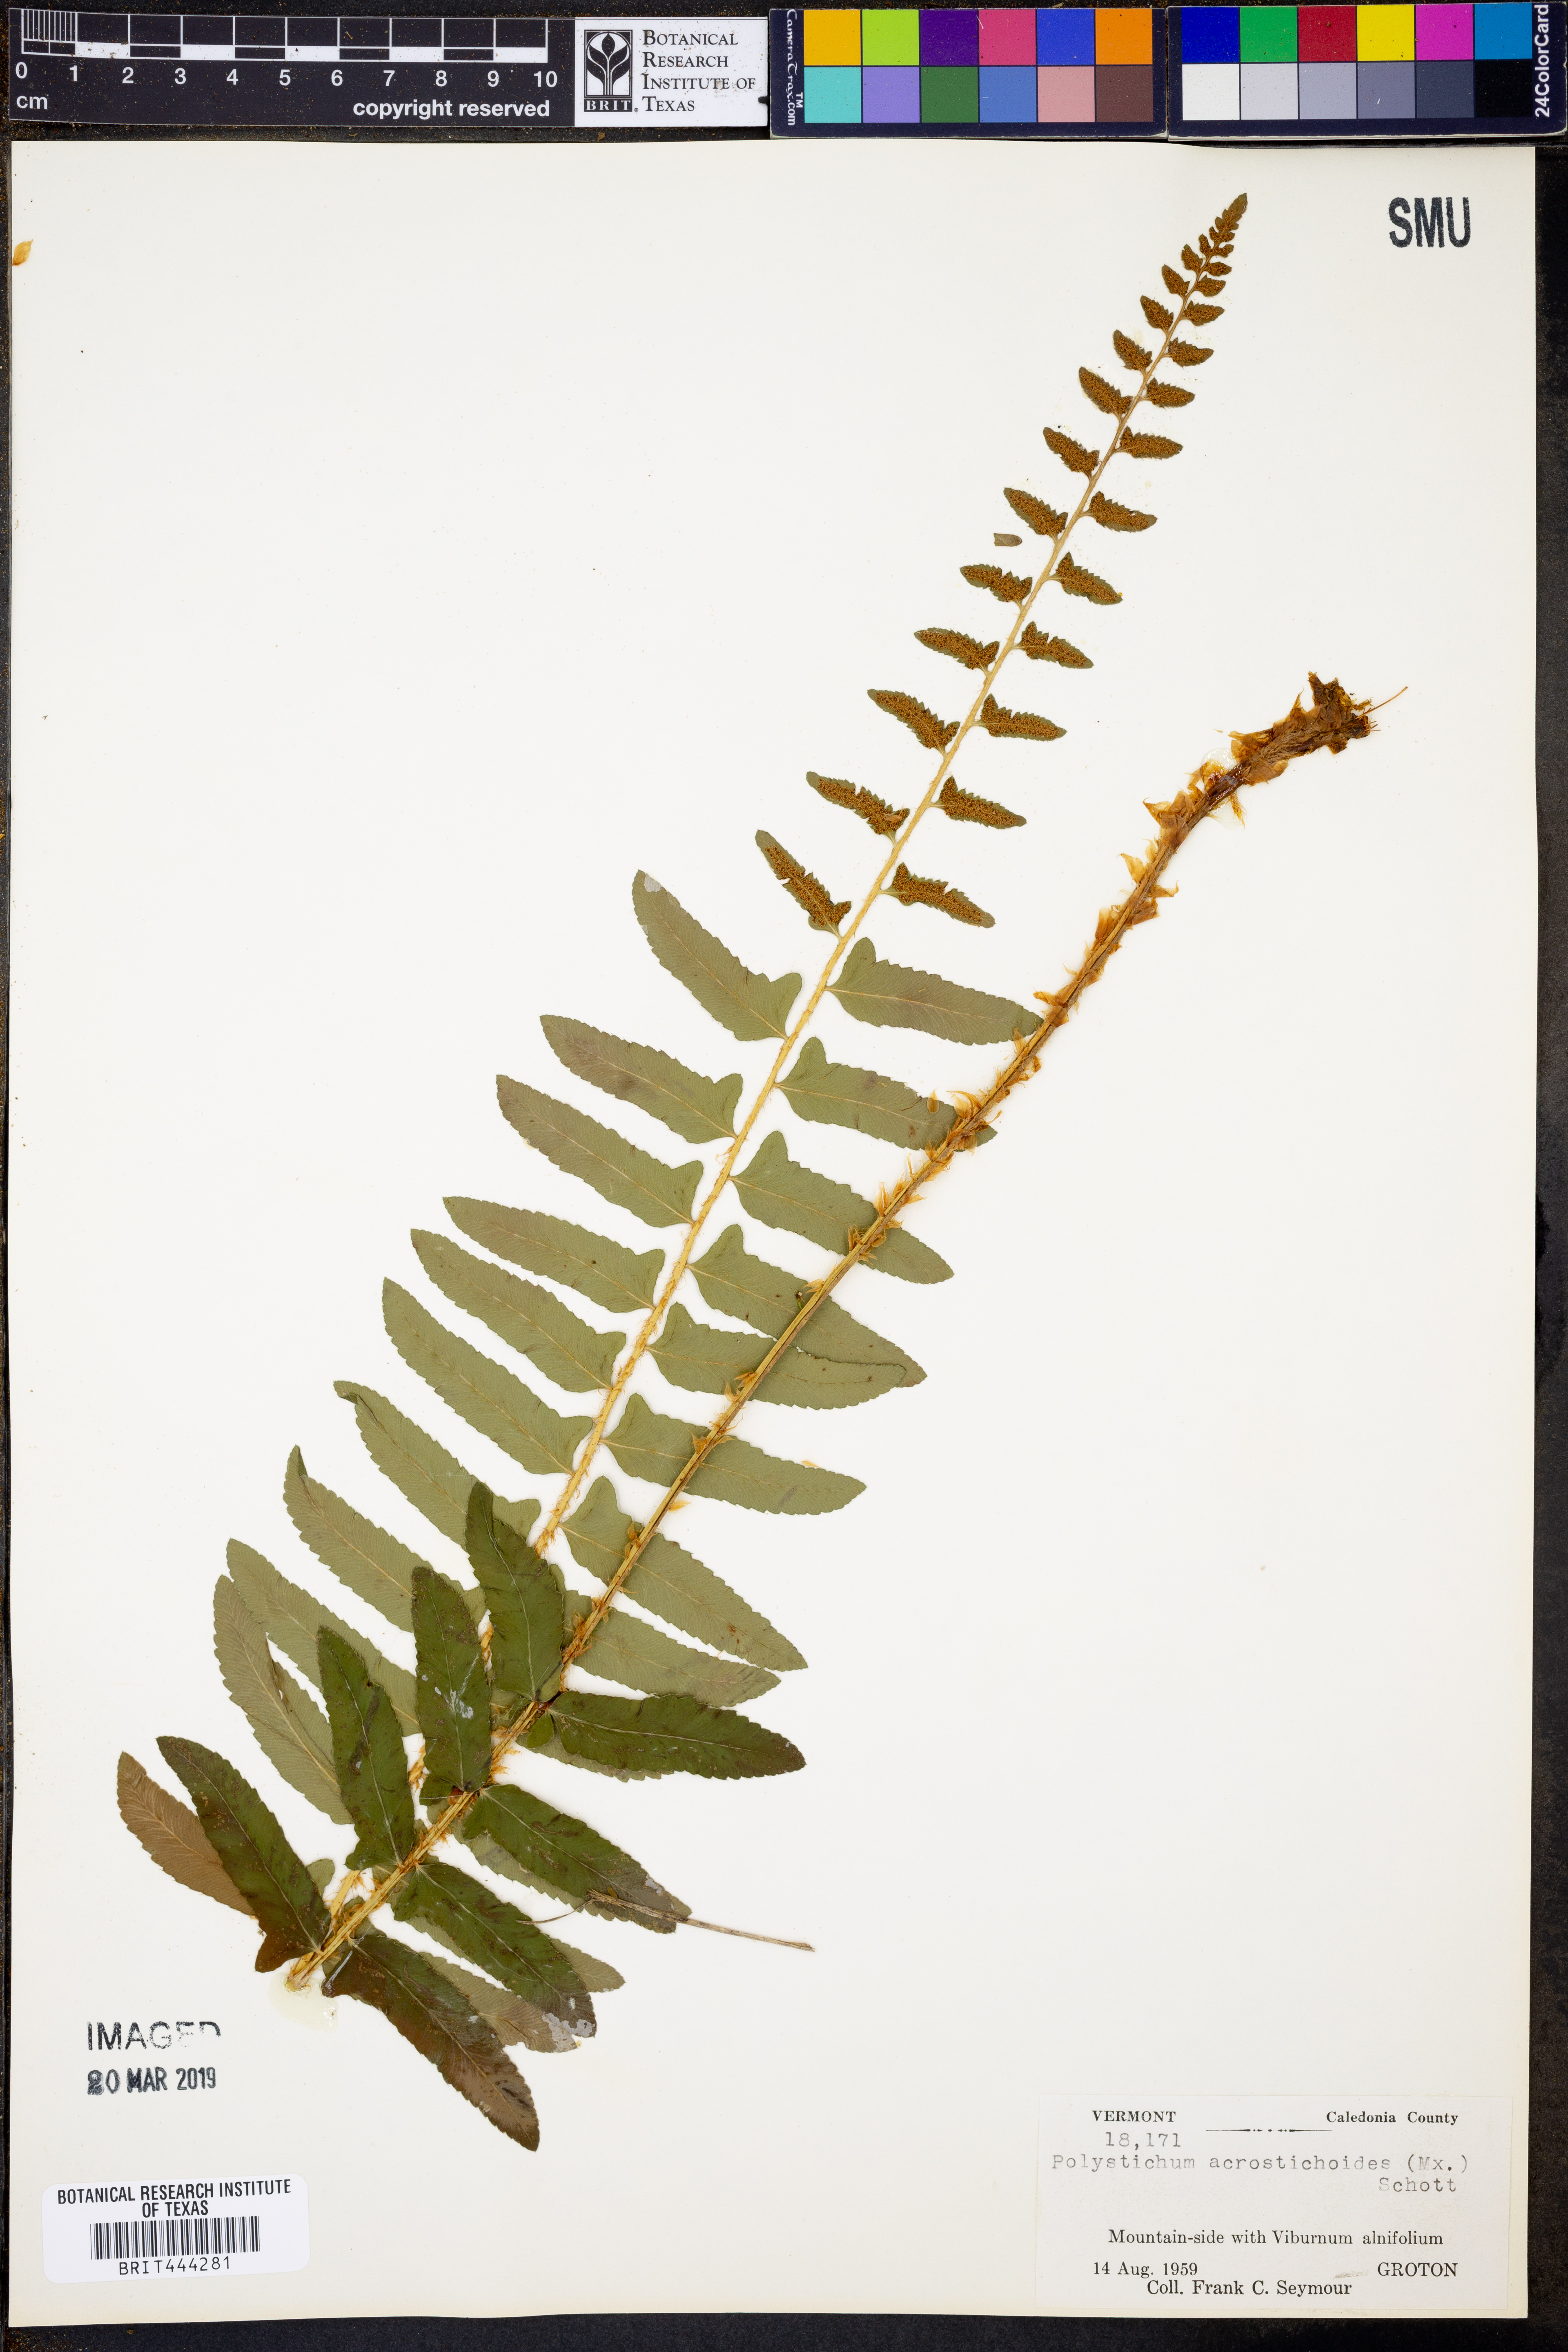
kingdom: Plantae
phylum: Tracheophyta
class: Polypodiopsida
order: Polypodiales
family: Dryopteridaceae
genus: Polystichum
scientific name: Polystichum acrostichoides
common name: Christmas fern
